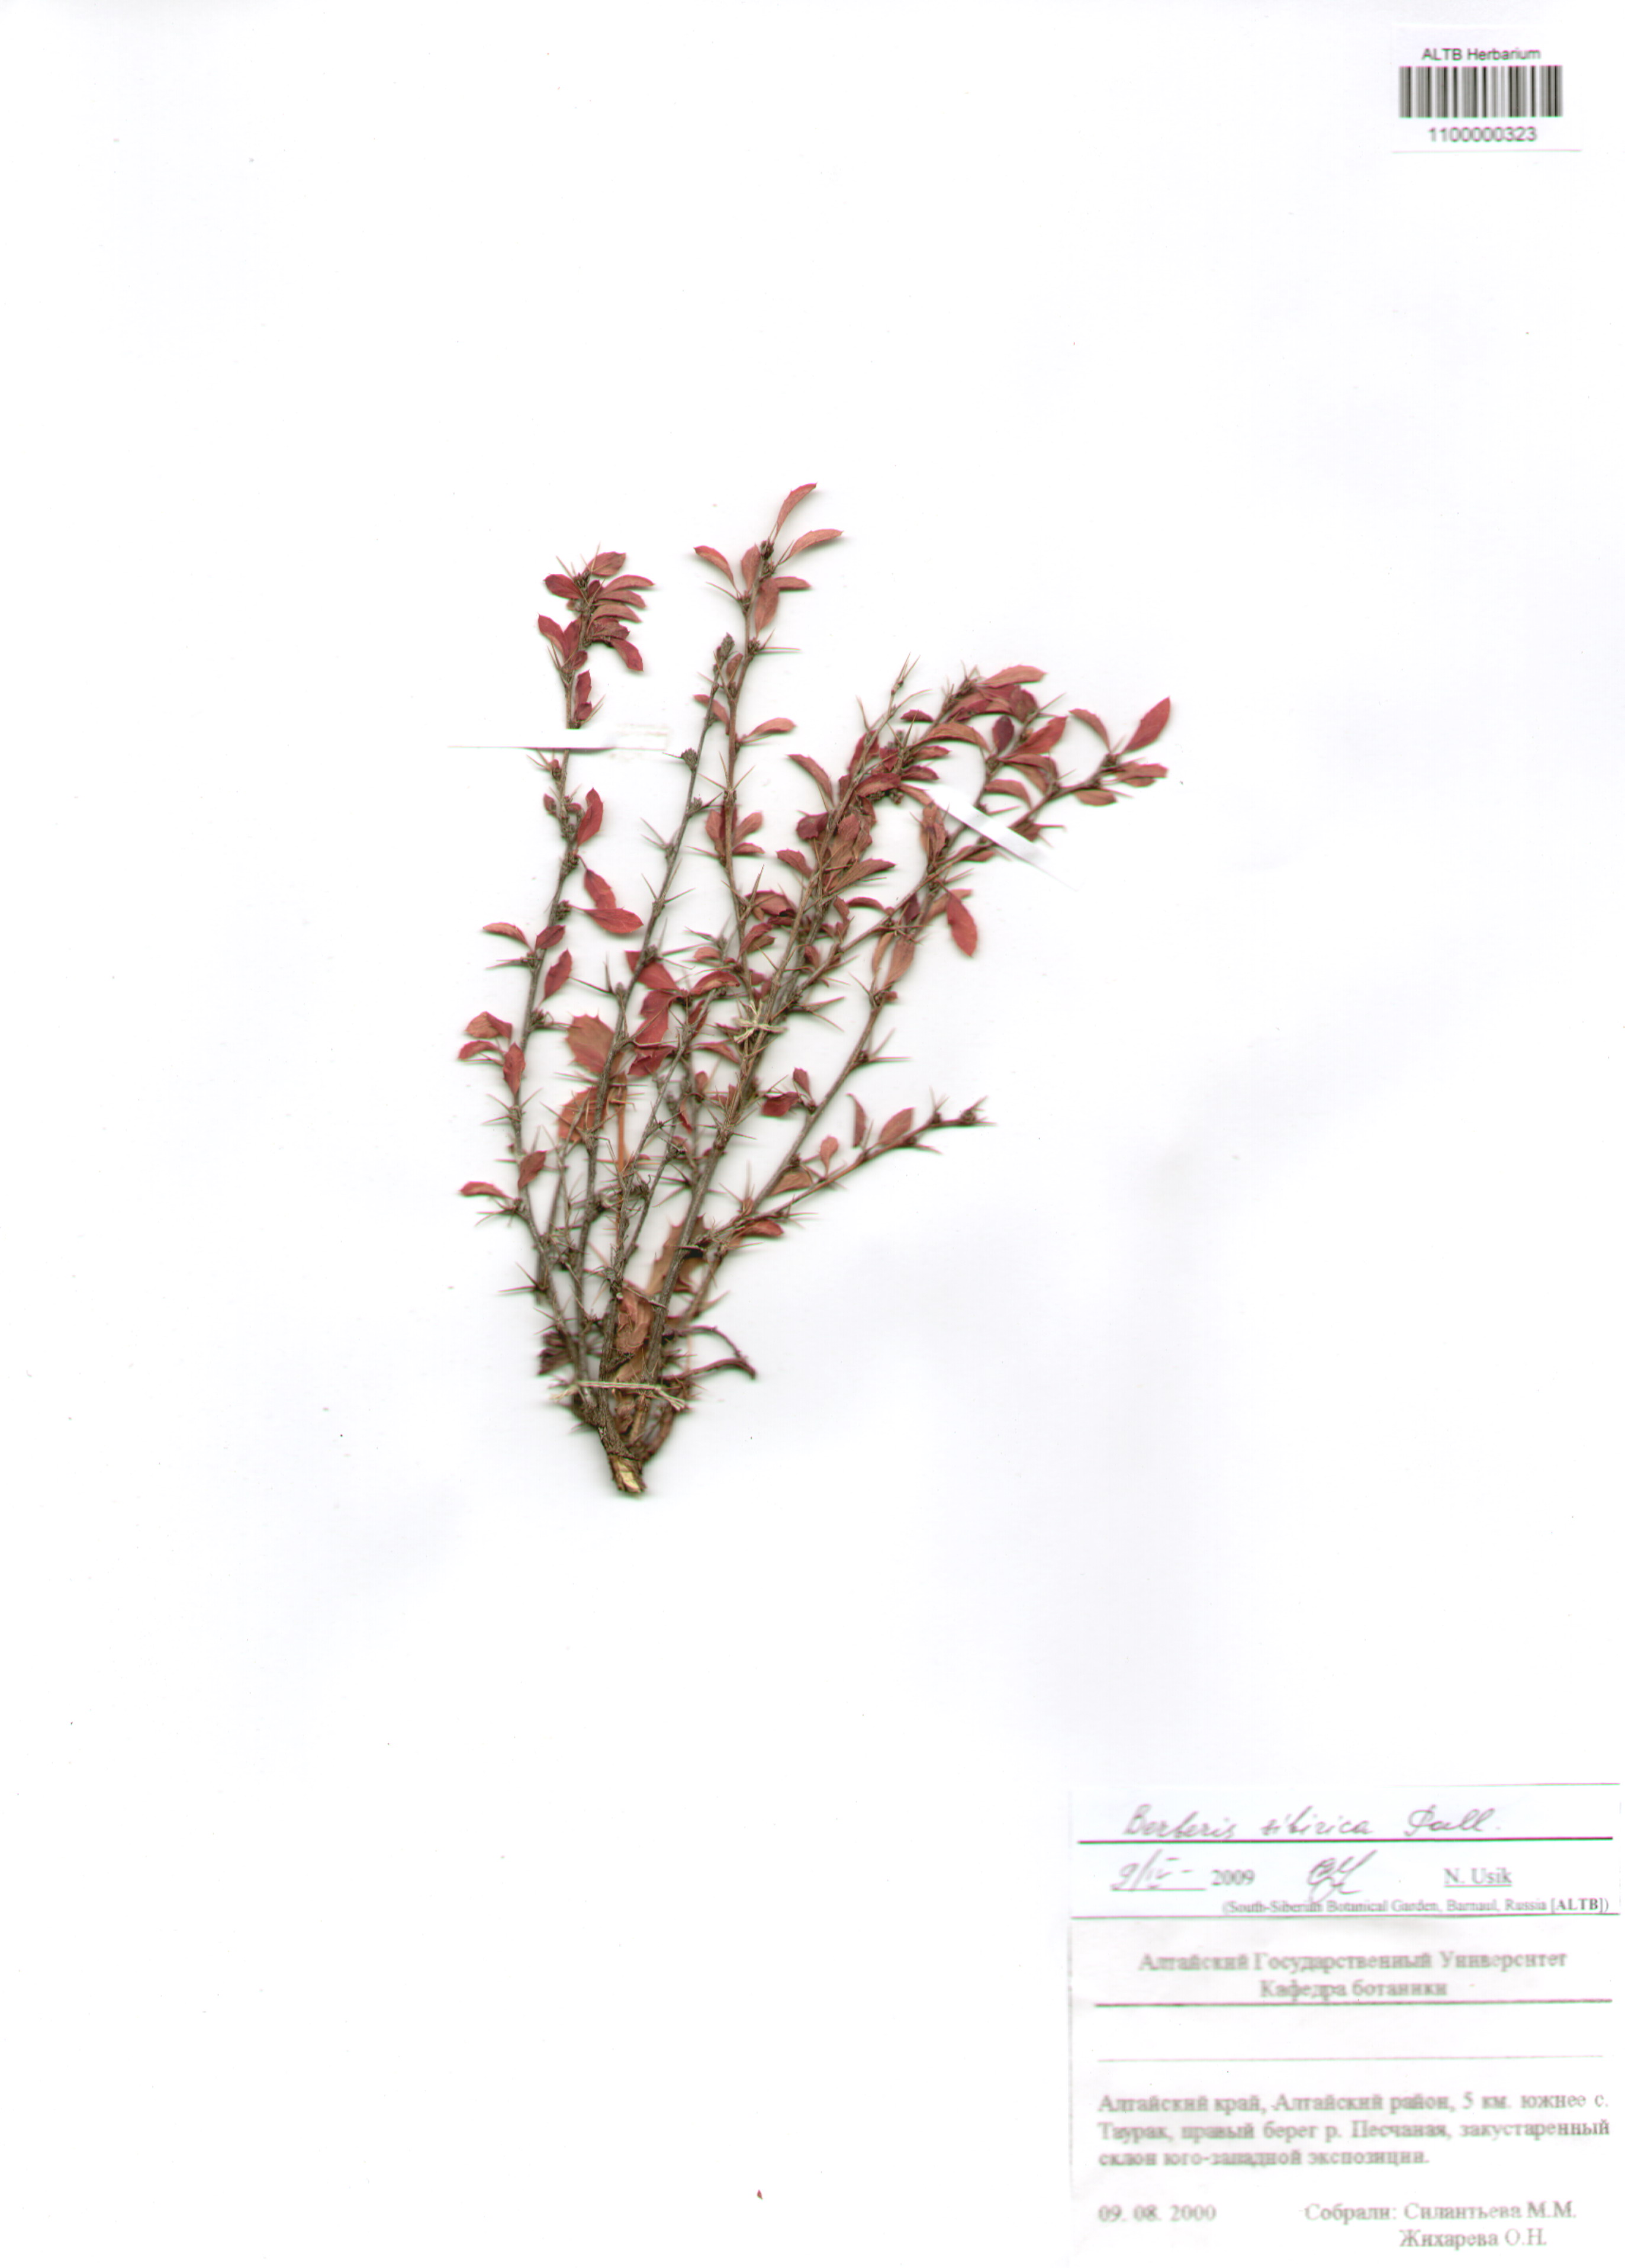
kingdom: Plantae
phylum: Tracheophyta
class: Magnoliopsida
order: Ranunculales
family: Berberidaceae
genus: Berberis
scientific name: Berberis sibirica
